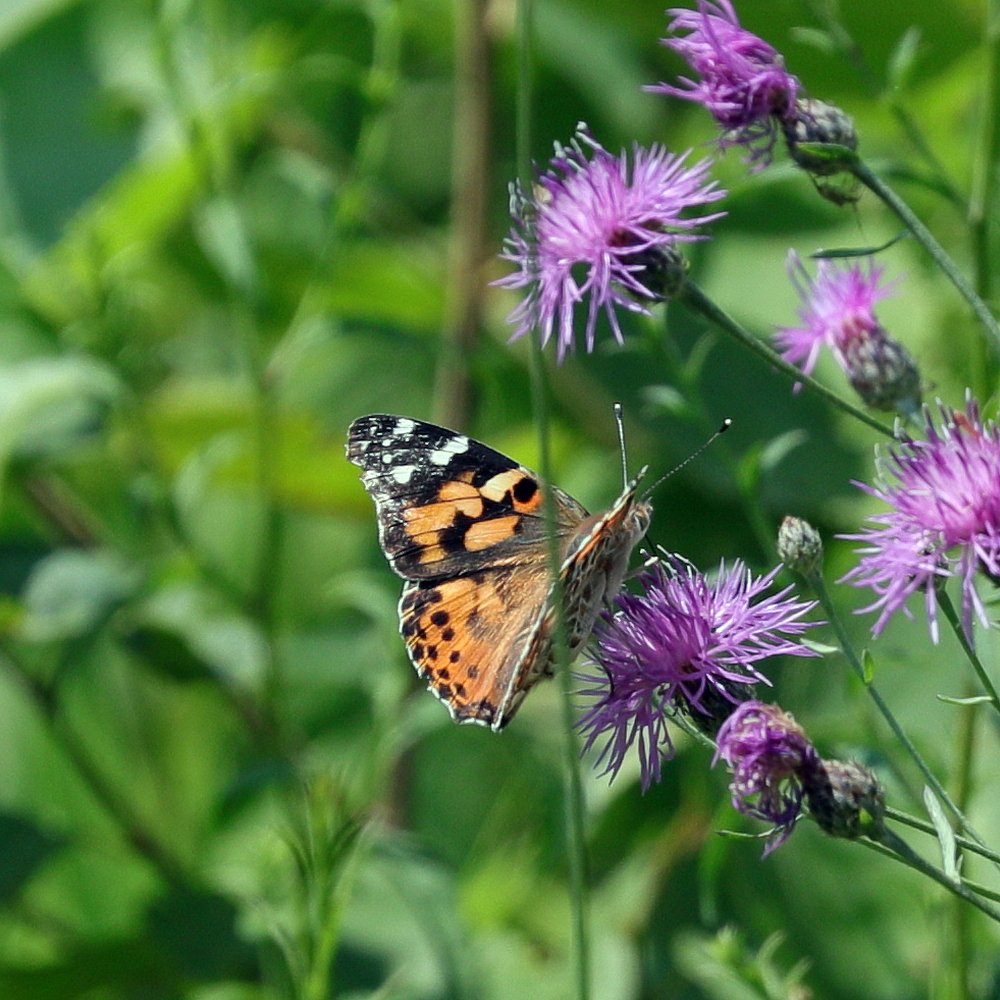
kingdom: Animalia
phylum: Arthropoda
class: Insecta
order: Lepidoptera
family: Nymphalidae
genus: Vanessa
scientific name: Vanessa cardui
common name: Painted Lady
